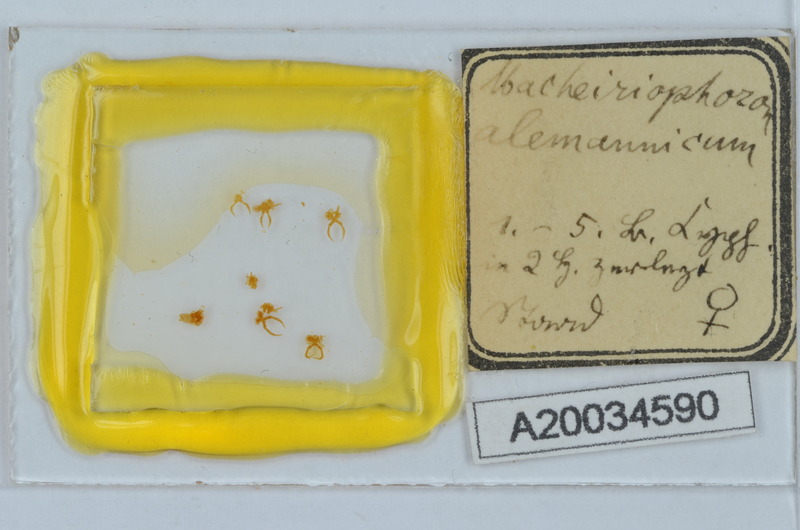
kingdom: Animalia
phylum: Arthropoda
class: Diplopoda
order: Chordeumatida
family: Craspedosomatidae
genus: Macheiriophoron
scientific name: Macheiriophoron alemannicum
